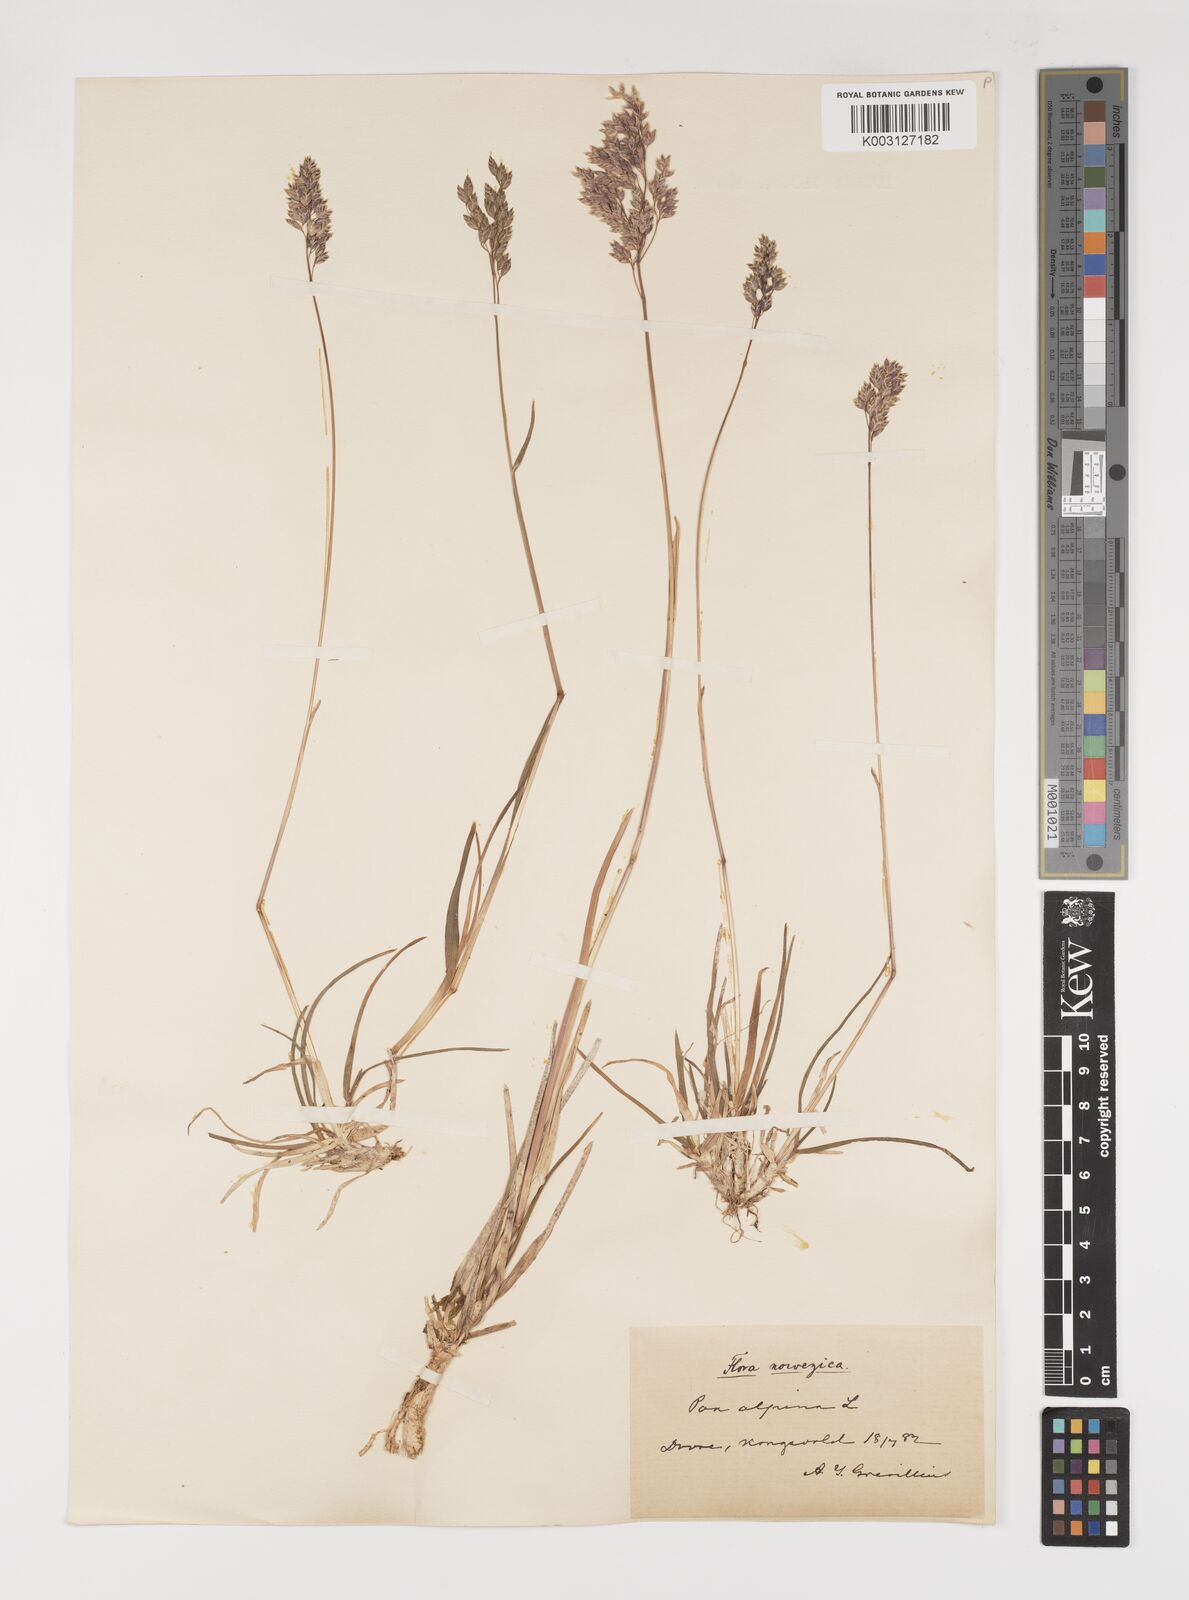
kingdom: Plantae
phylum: Tracheophyta
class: Liliopsida
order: Poales
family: Poaceae
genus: Poa
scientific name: Poa alpina
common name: Alpine bluegrass
